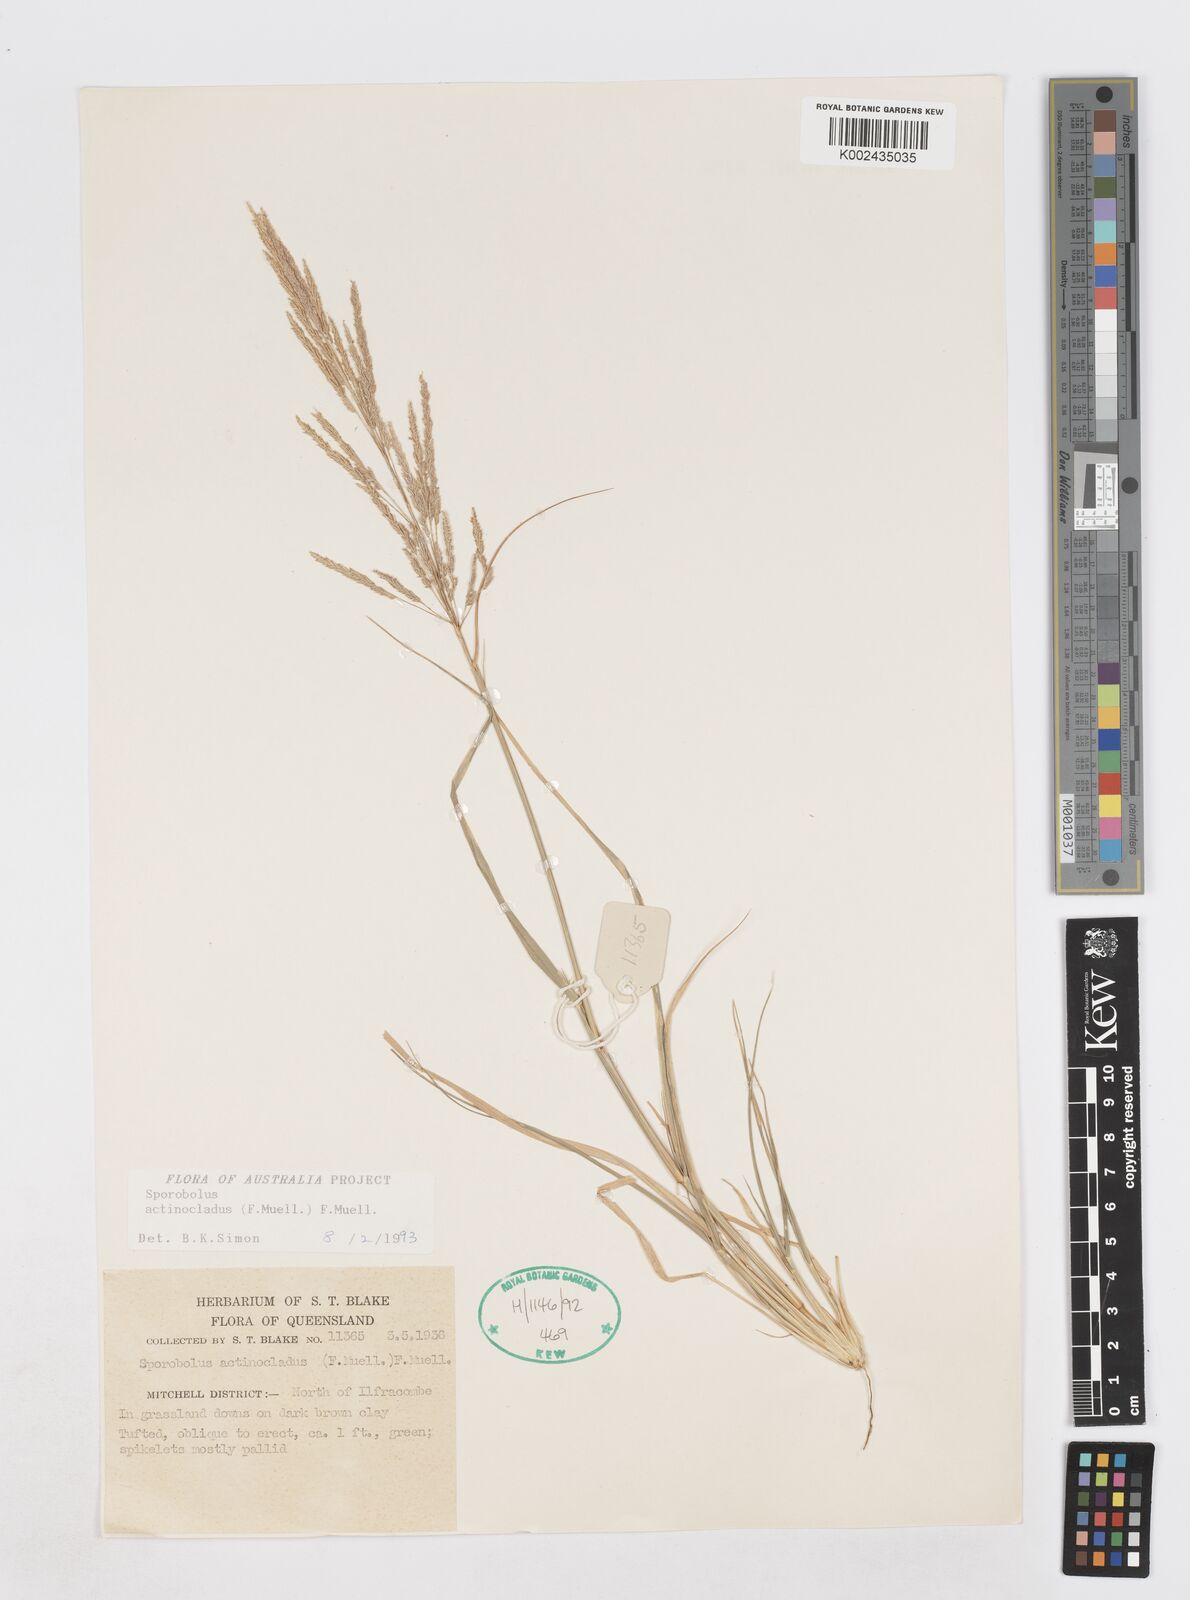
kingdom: Plantae
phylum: Tracheophyta
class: Liliopsida
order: Poales
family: Poaceae
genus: Sporobolus
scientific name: Sporobolus actinocladus
